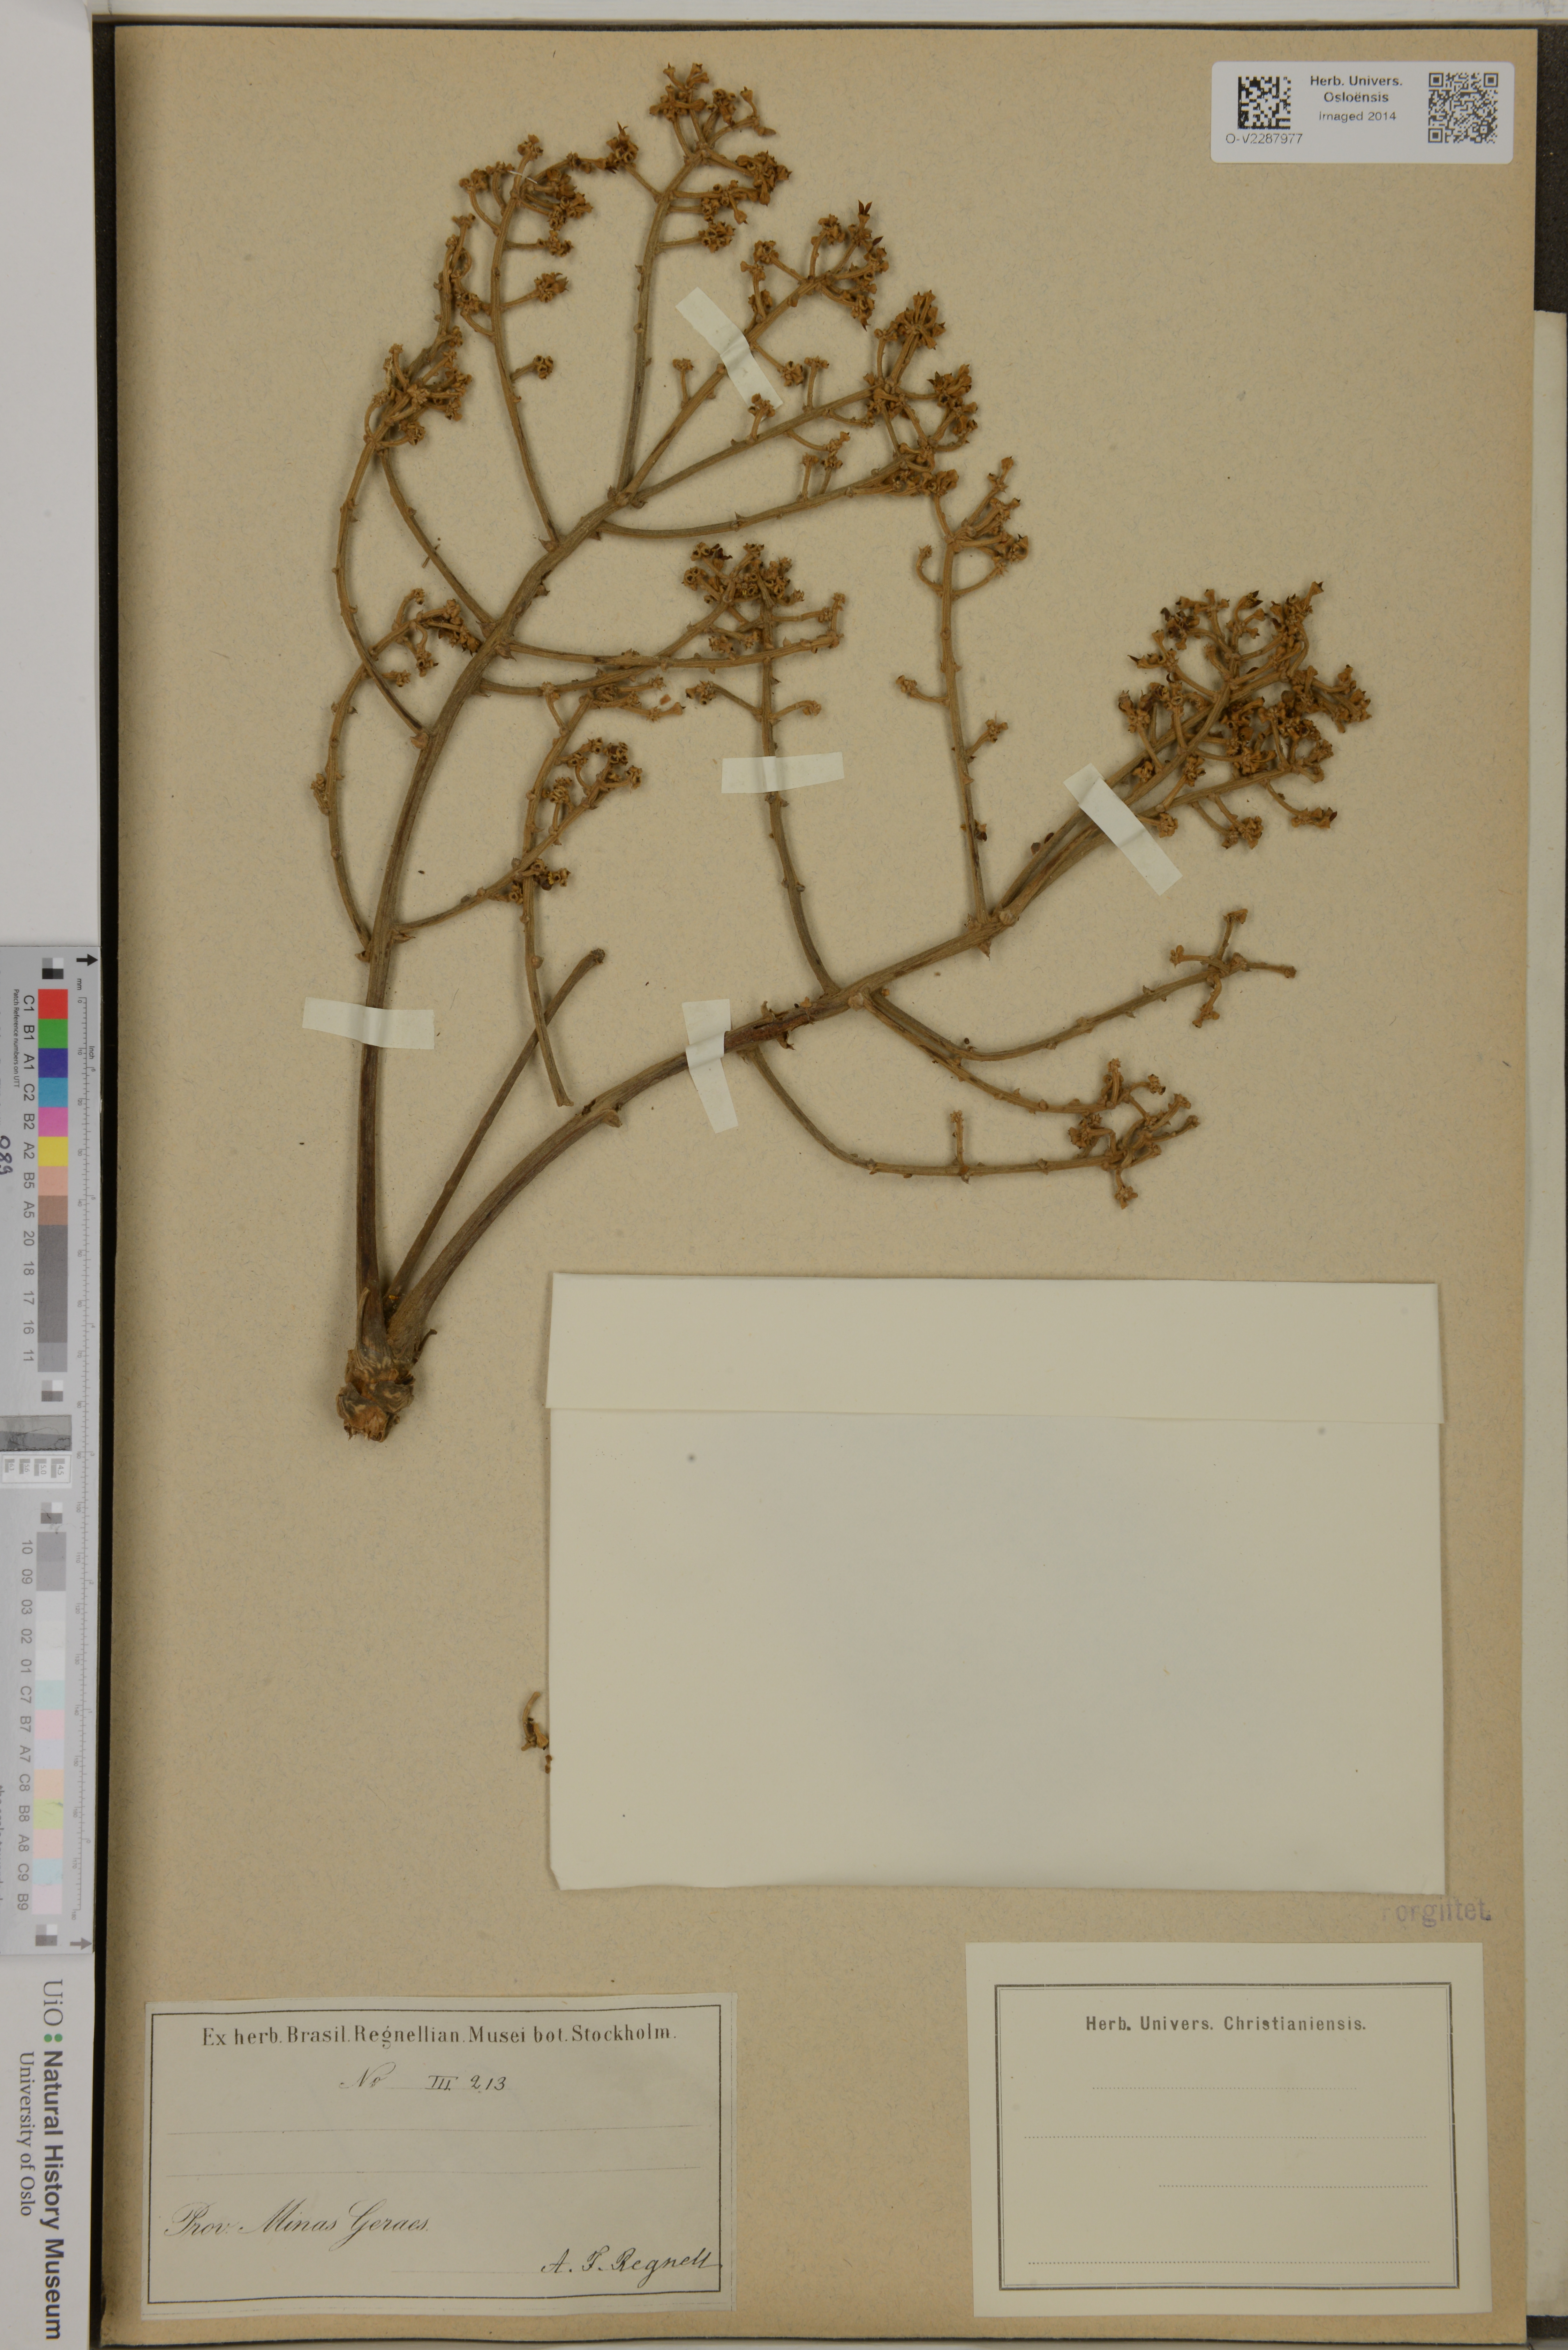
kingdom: Plantae
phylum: Tracheophyta
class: Magnoliopsida
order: Apiales
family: Araliaceae
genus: Aralia
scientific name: Aralia
